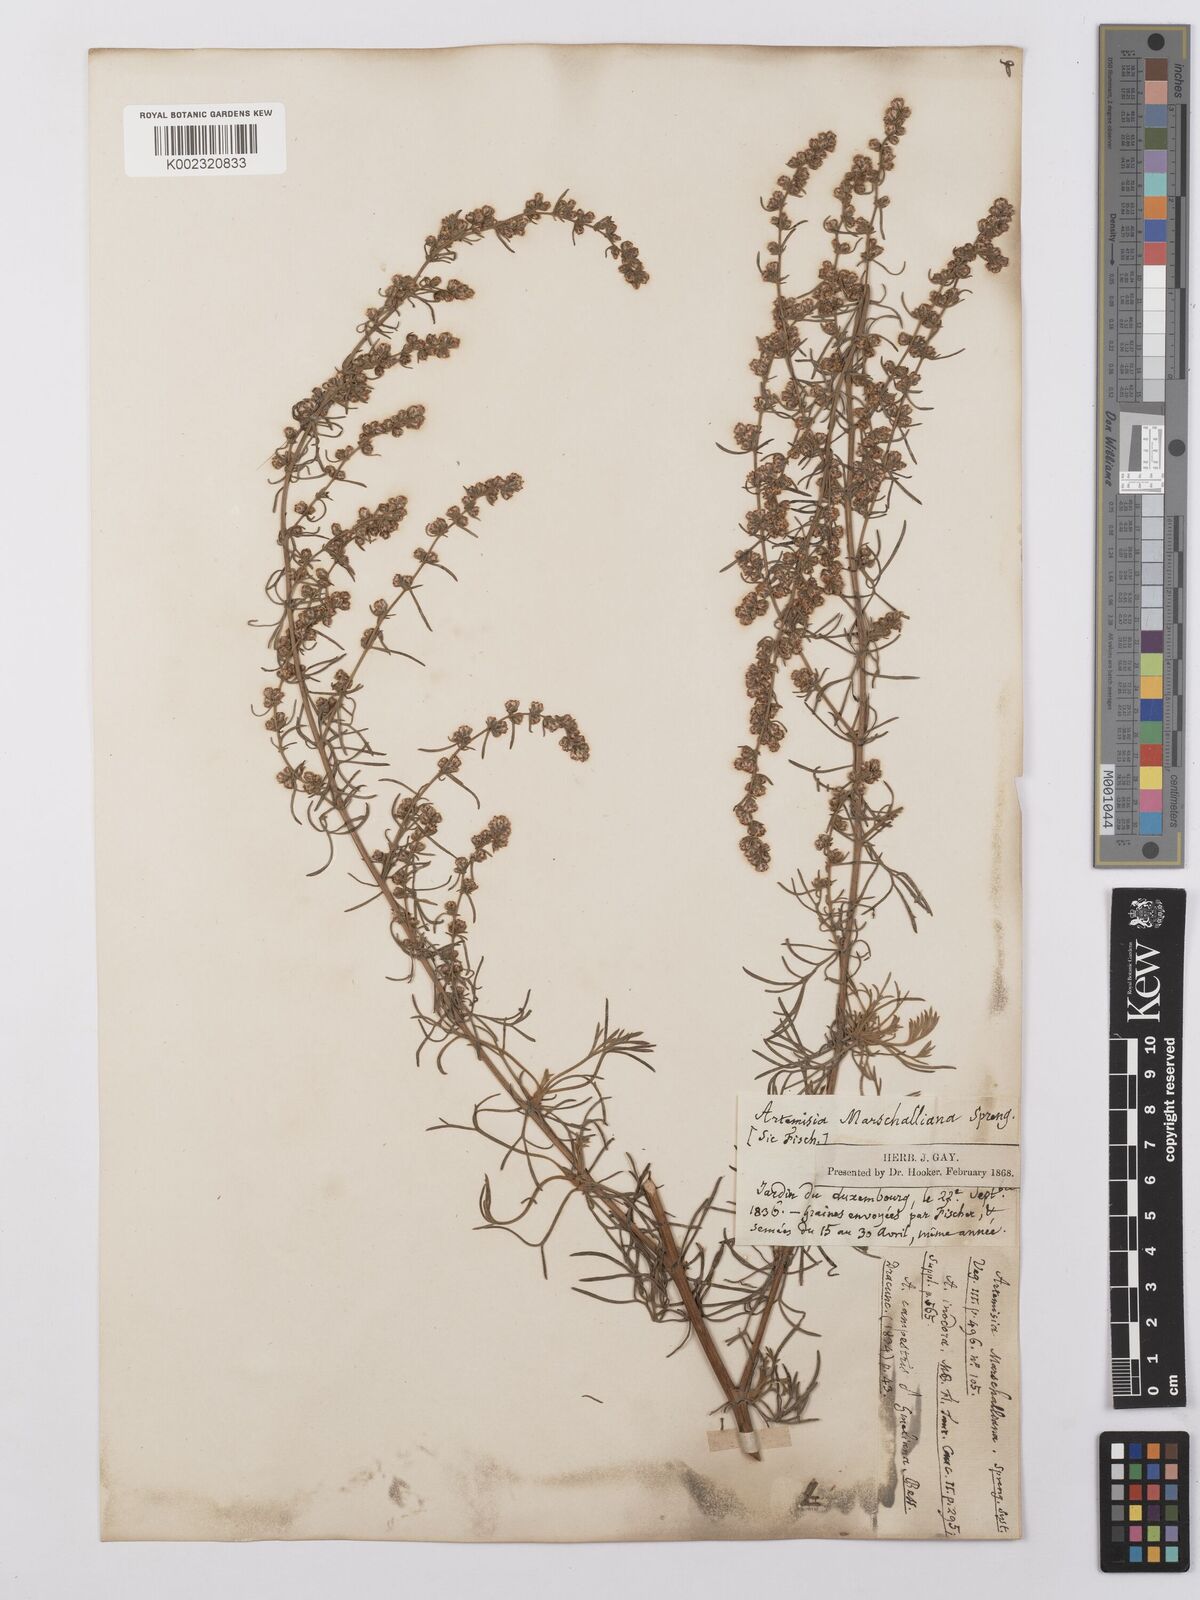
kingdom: Plantae
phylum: Tracheophyta
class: Magnoliopsida
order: Asterales
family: Asteraceae
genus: Artemisia
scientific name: Artemisia marschalliana
